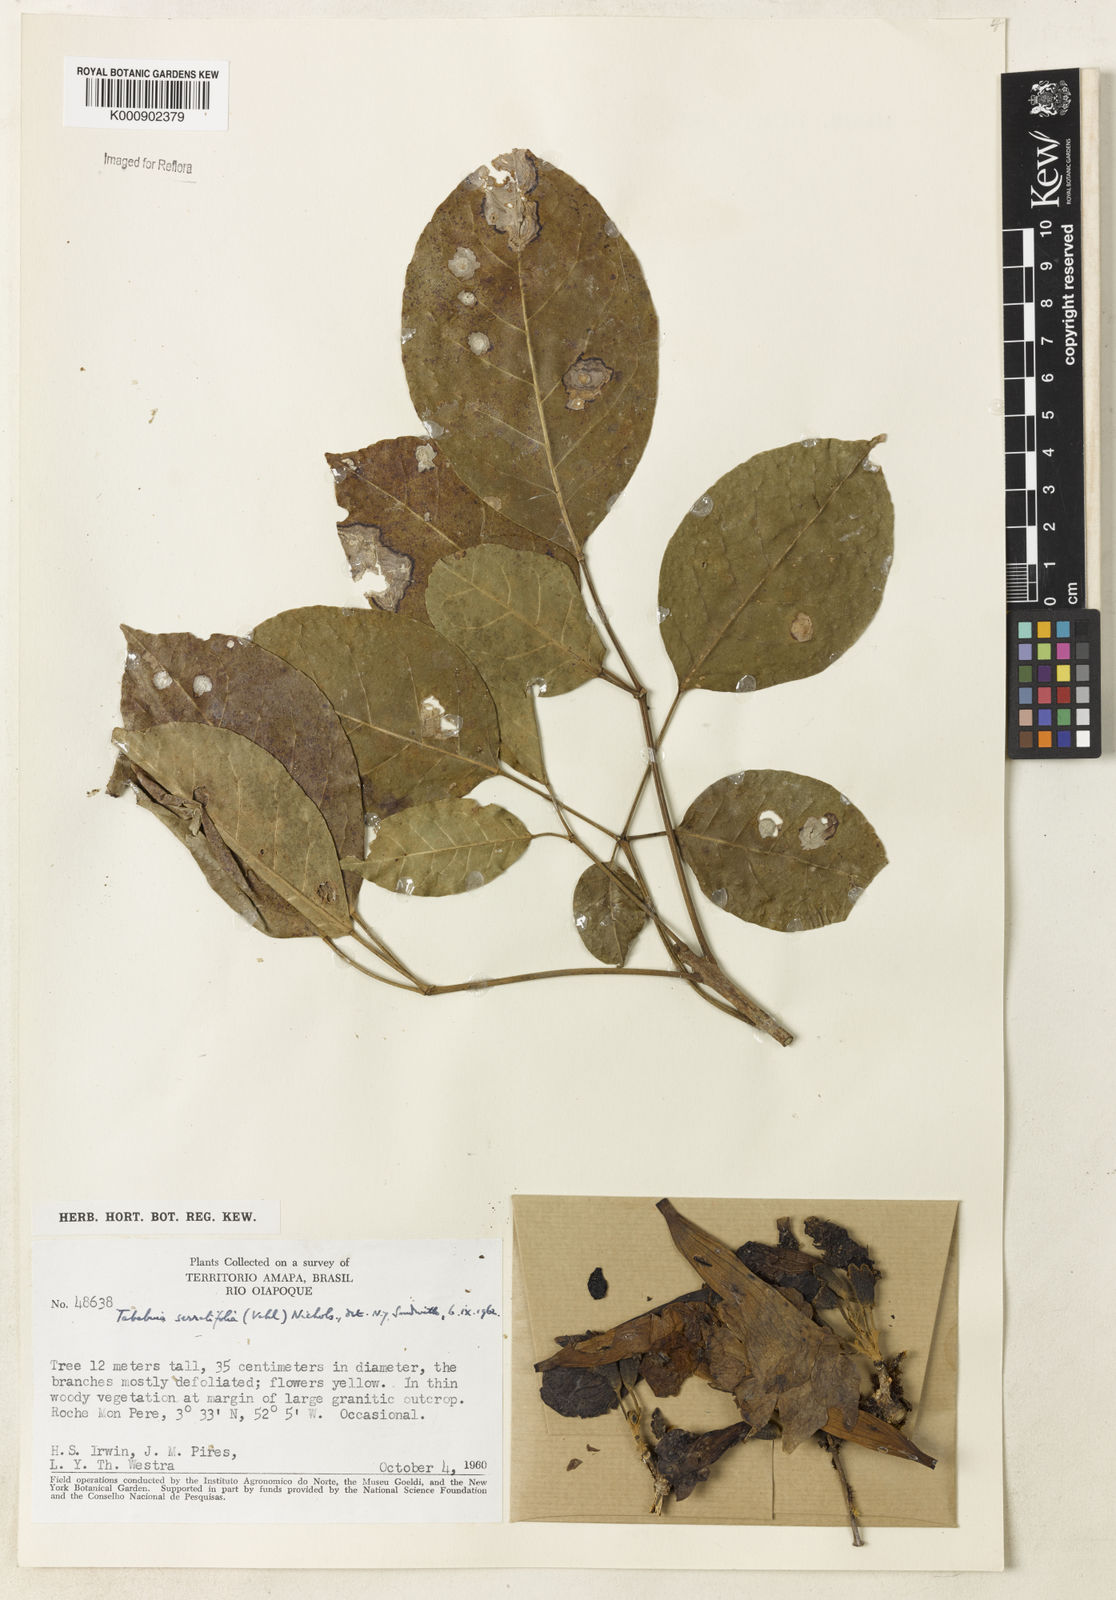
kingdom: Plantae
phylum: Tracheophyta
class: Magnoliopsida
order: Lamiales
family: Bignoniaceae
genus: Handroanthus
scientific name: Handroanthus serratifolius
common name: Yellow ipe
